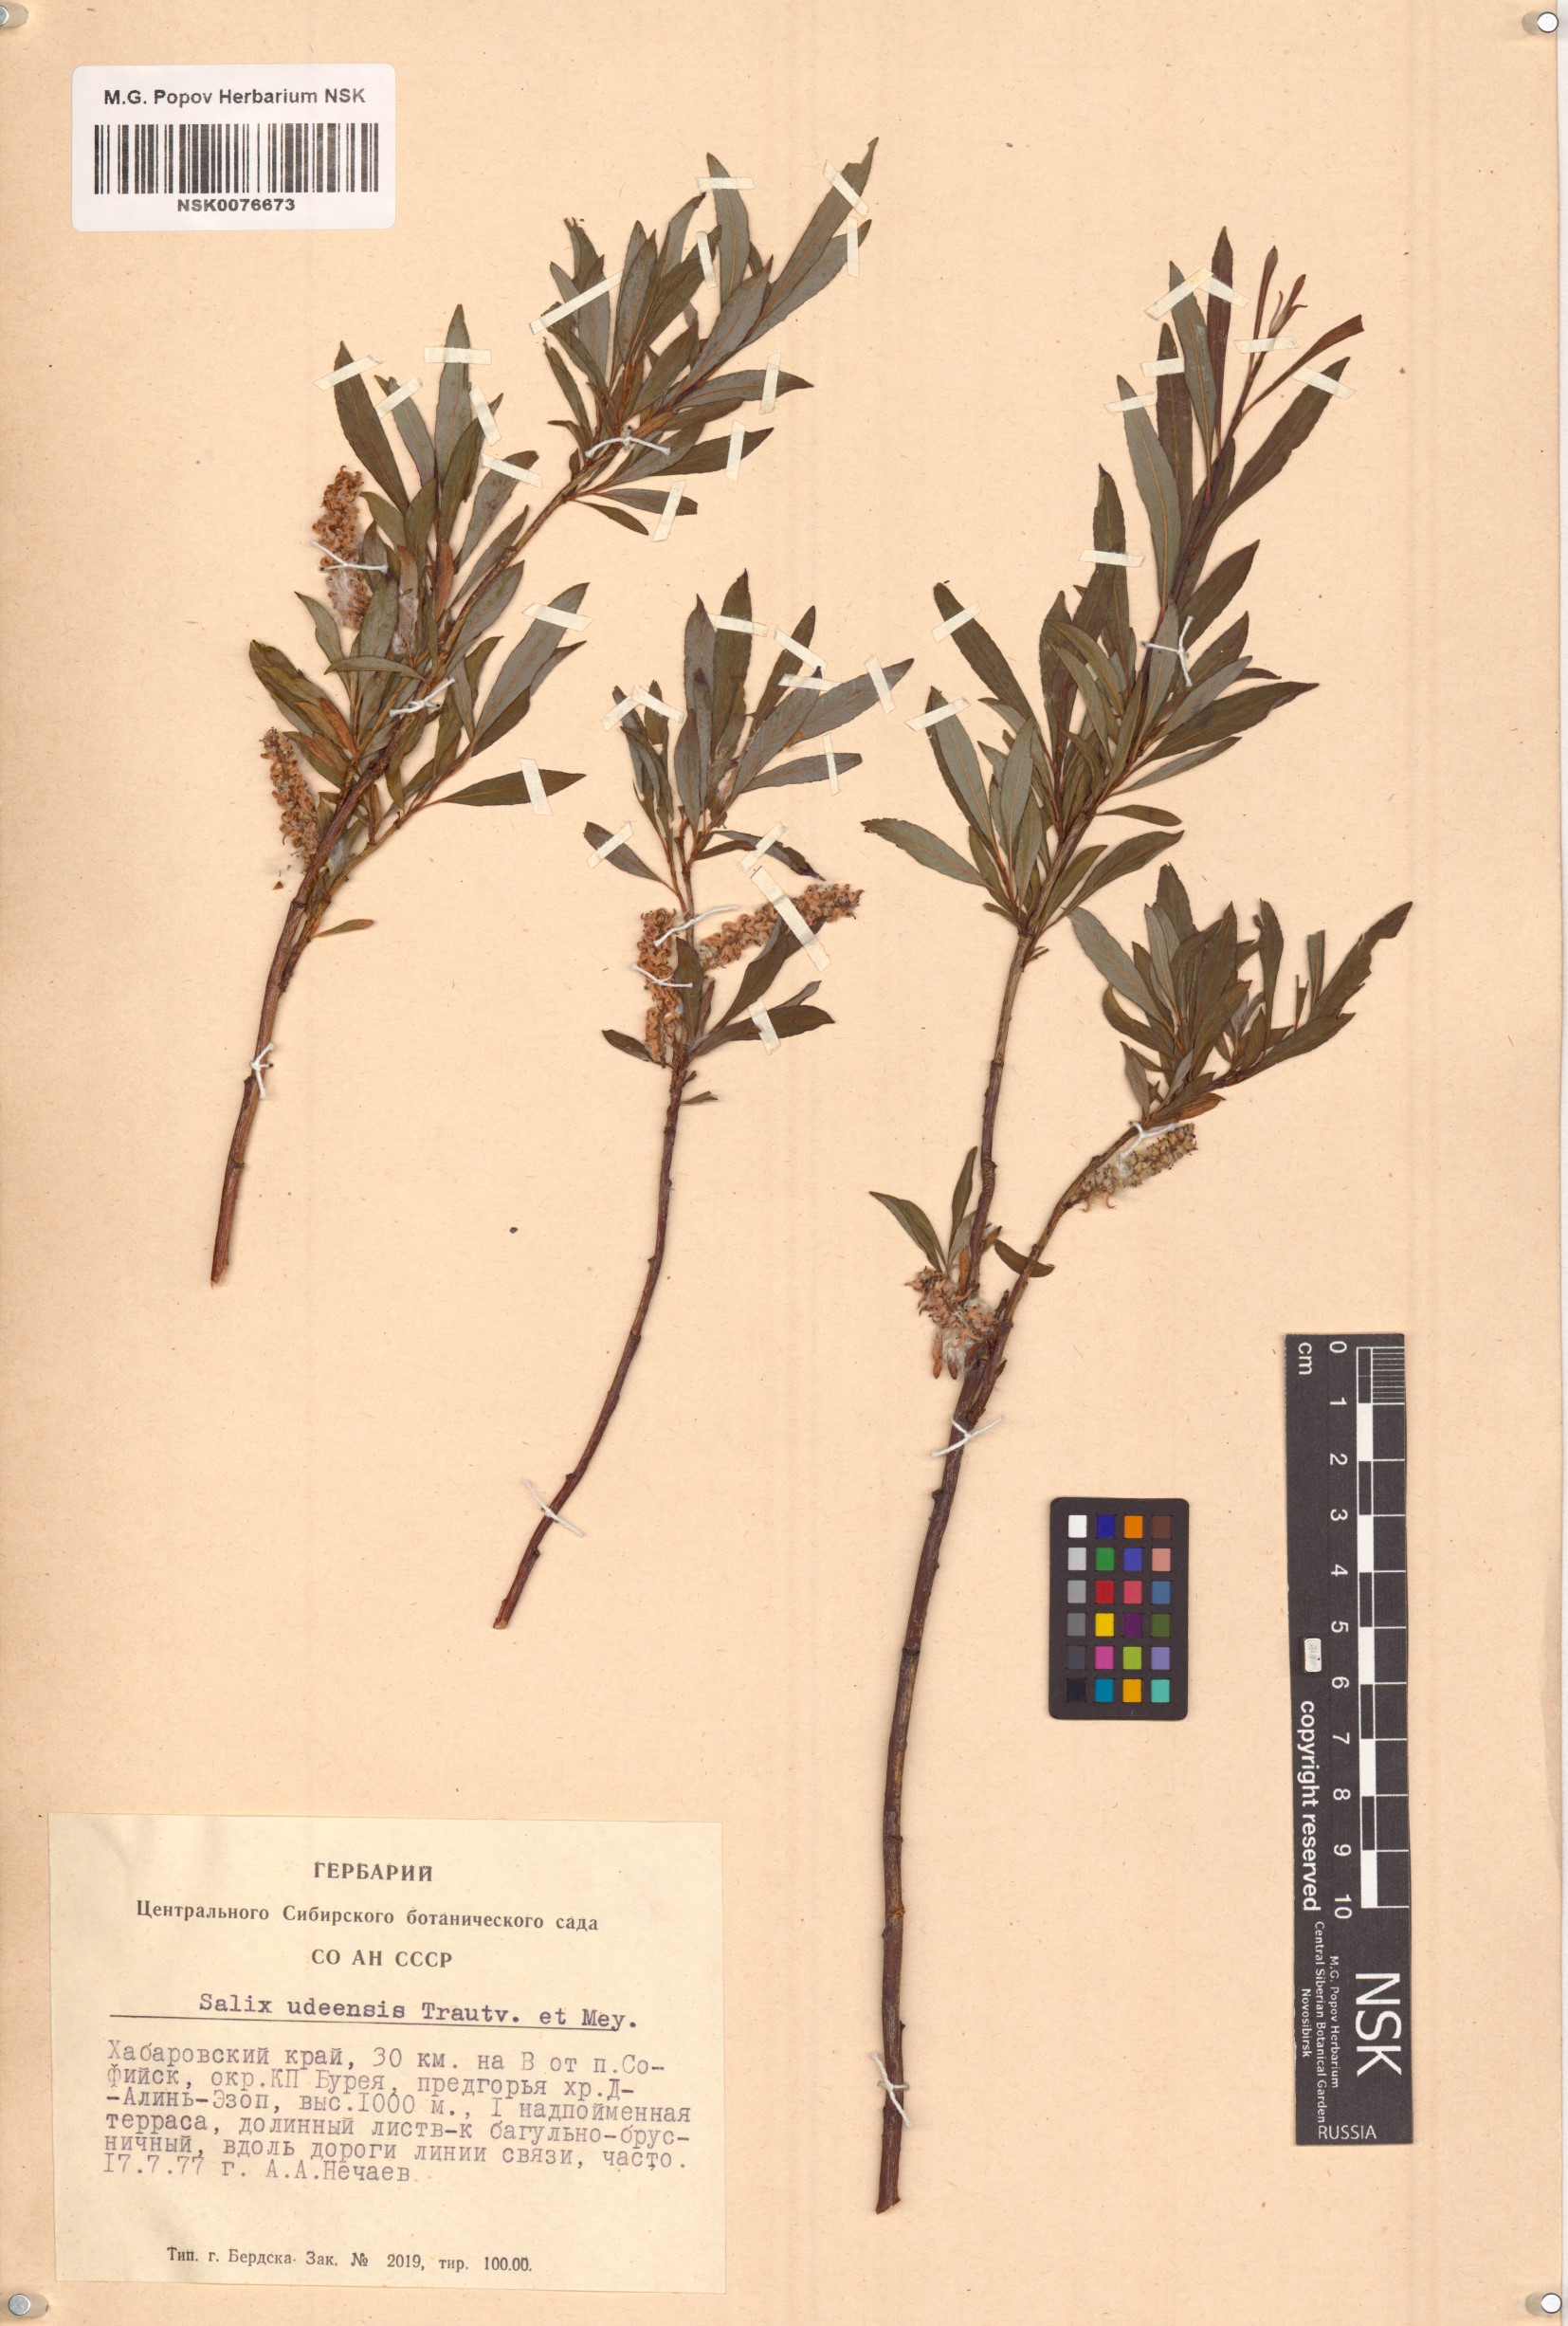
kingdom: Plantae
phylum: Tracheophyta
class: Magnoliopsida
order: Malpighiales
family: Salicaceae
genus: Salix
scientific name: Salix udensis
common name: Sachalin willow
